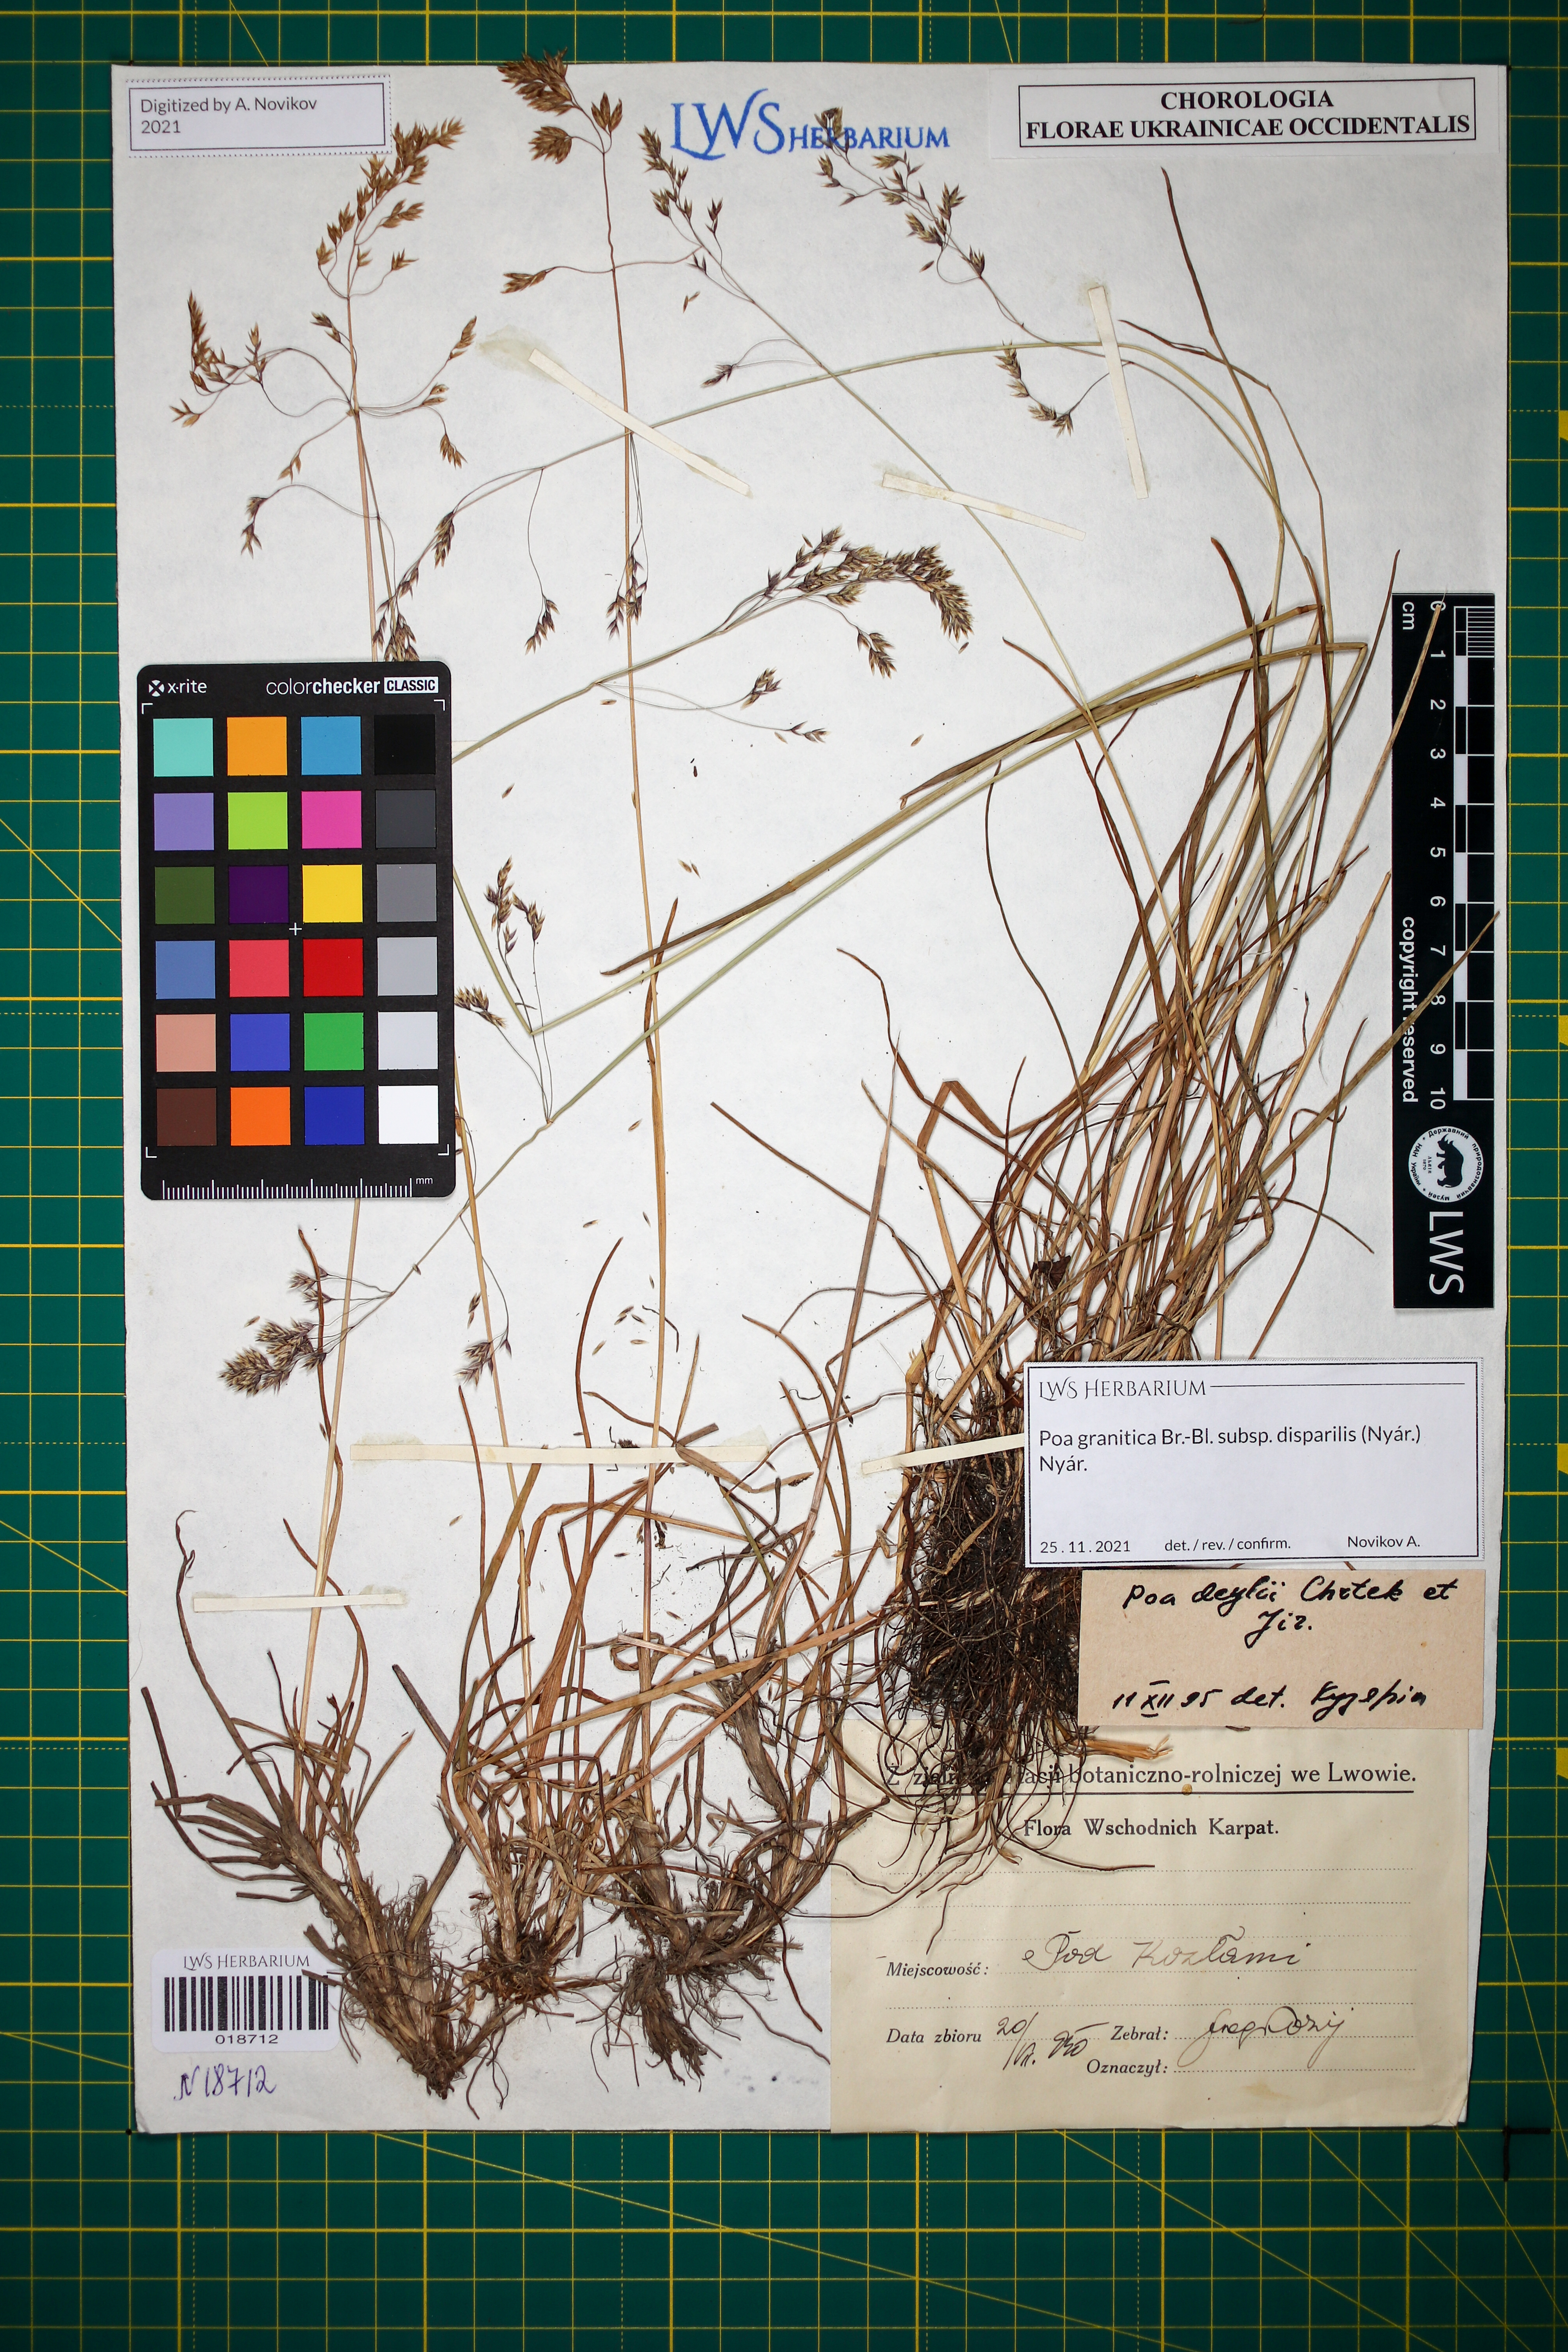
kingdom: Plantae
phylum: Tracheophyta
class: Liliopsida
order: Poales
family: Poaceae
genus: Poa
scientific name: Poa granitica
